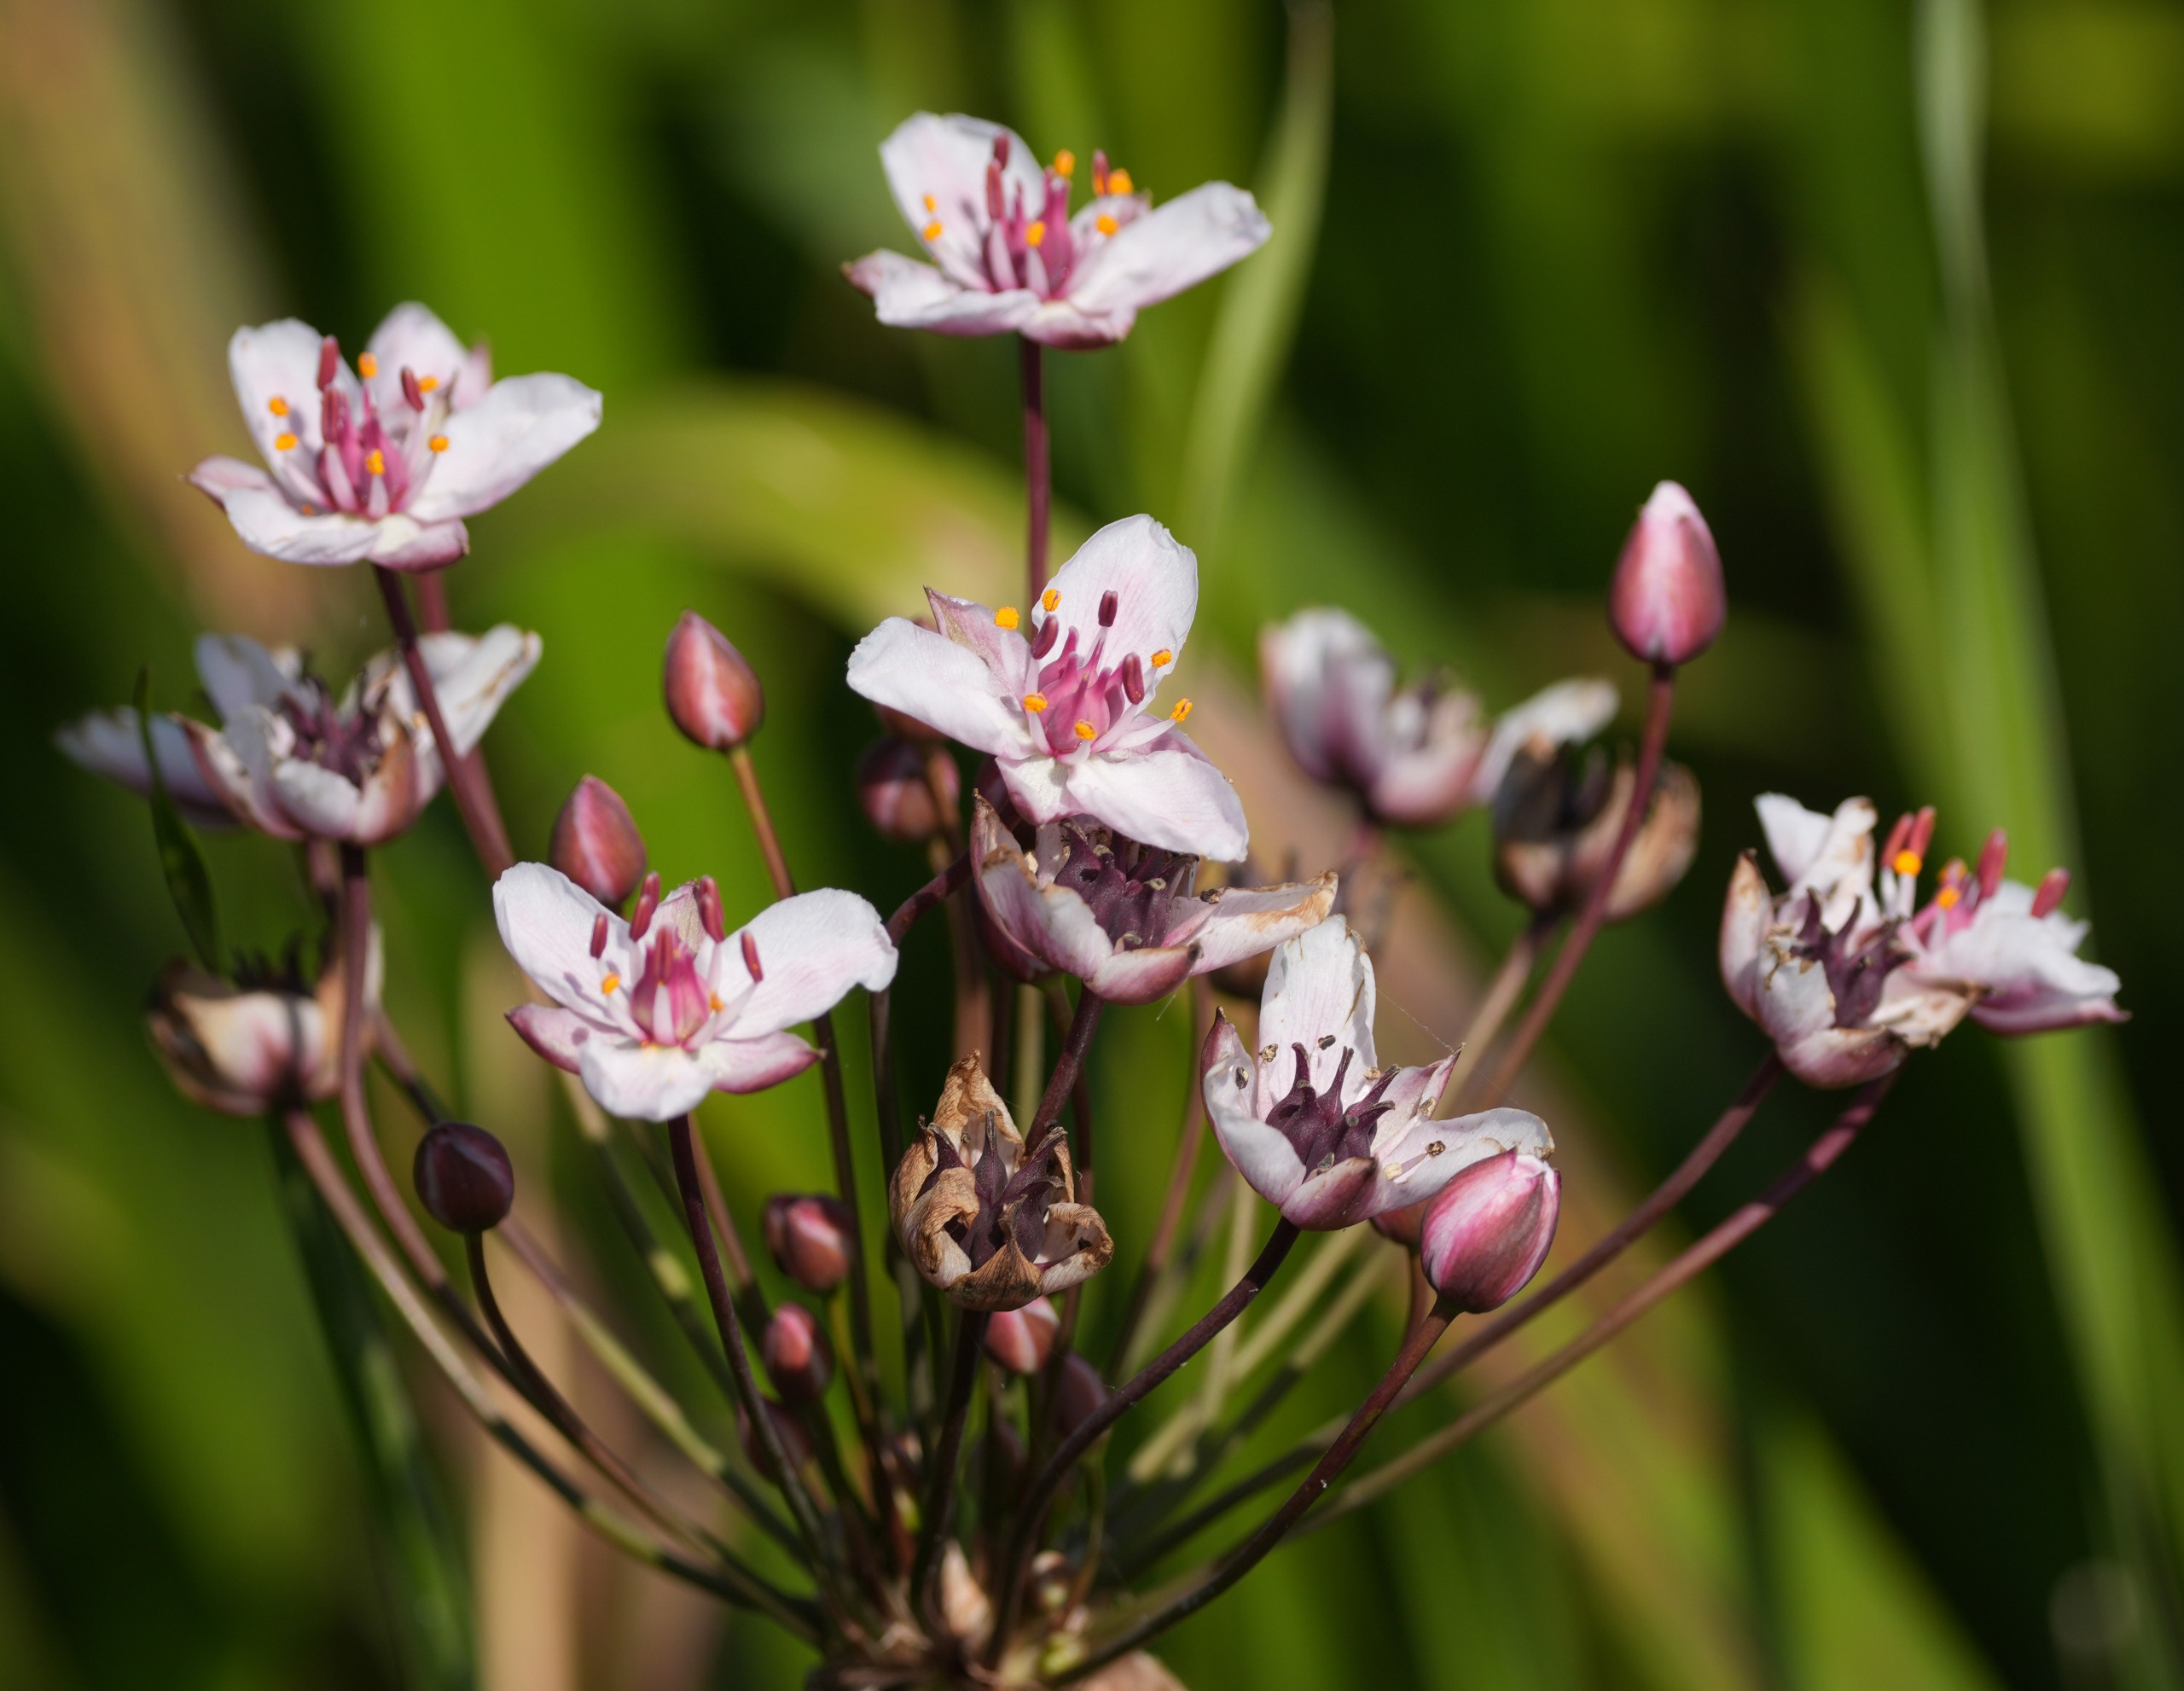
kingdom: Plantae
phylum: Tracheophyta
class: Liliopsida
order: Alismatales
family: Butomaceae
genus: Butomus
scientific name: Butomus umbellatus
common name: Brudelys
